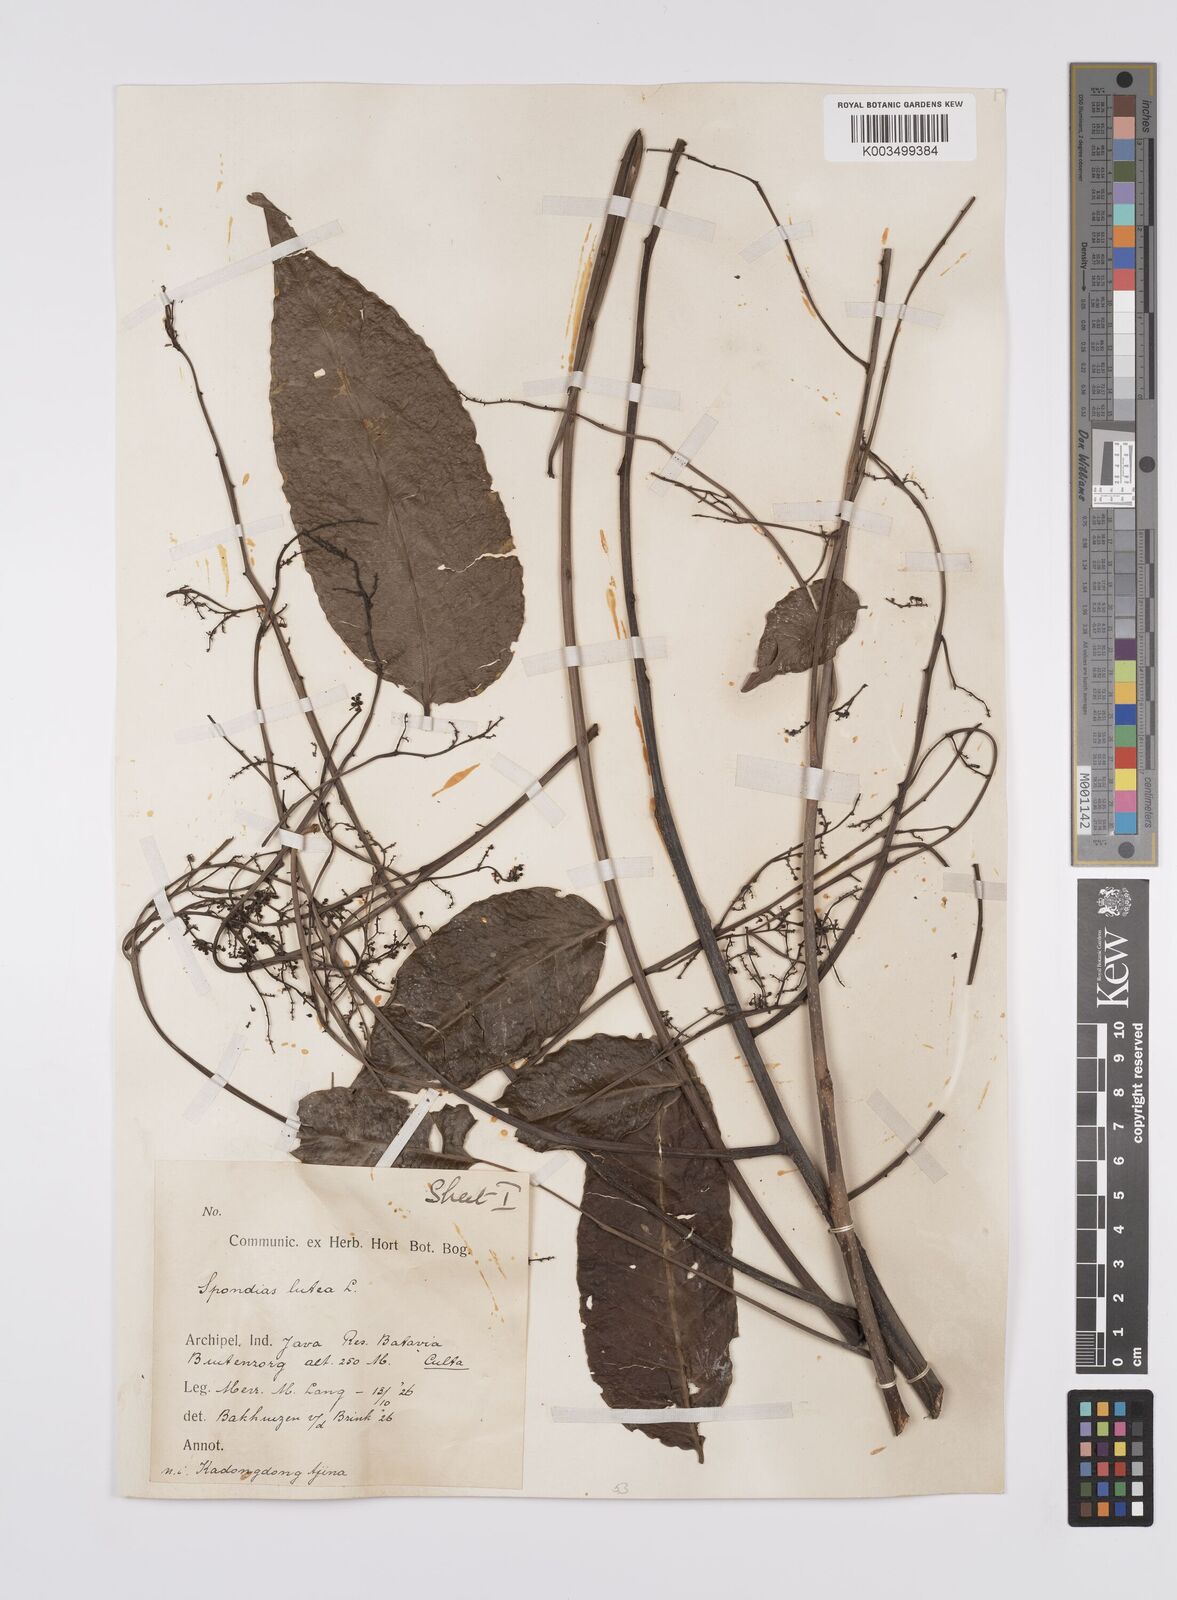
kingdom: Plantae
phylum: Tracheophyta
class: Magnoliopsida
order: Sapindales
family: Anacardiaceae
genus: Spondias
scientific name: Spondias mombin
